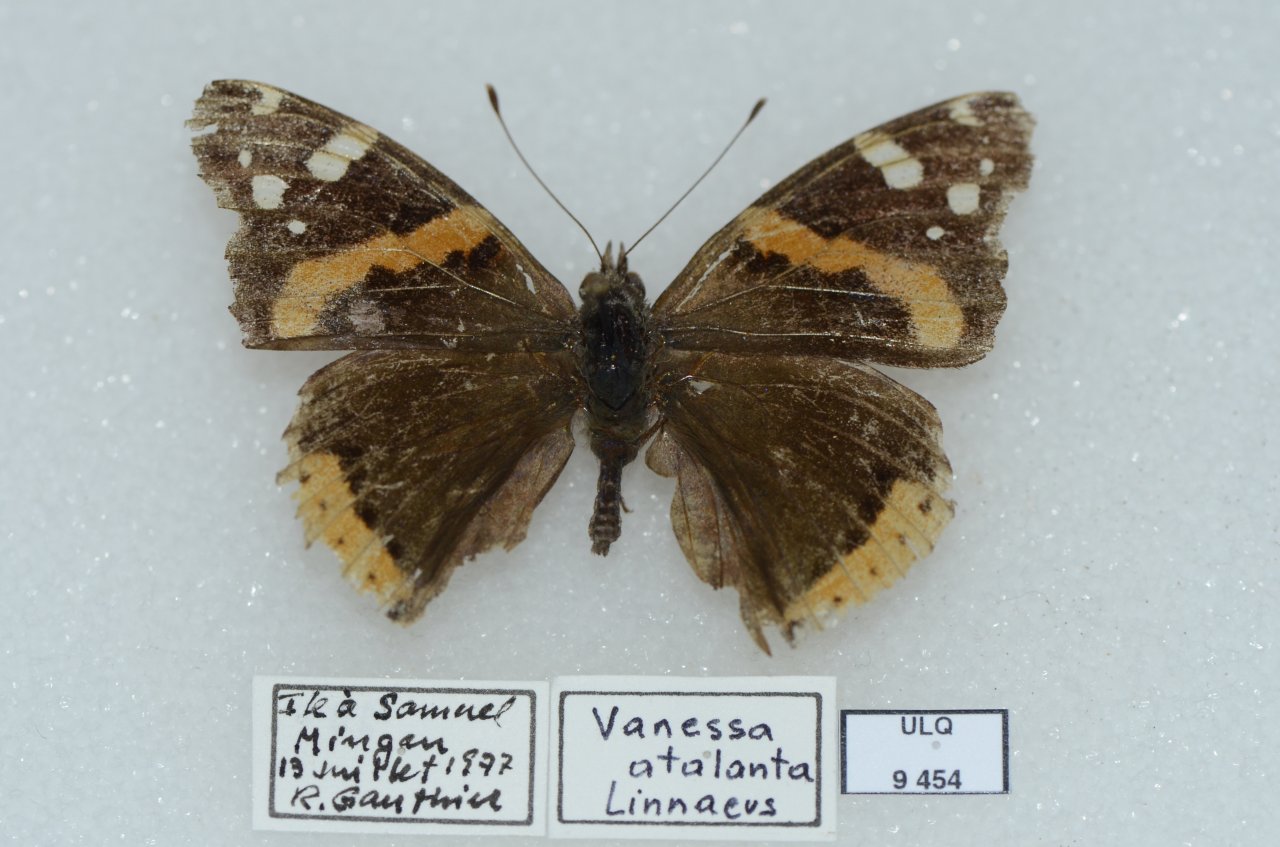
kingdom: Animalia
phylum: Arthropoda
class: Insecta
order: Lepidoptera
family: Nymphalidae
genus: Vanessa
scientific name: Vanessa atalanta
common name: Red Admiral
